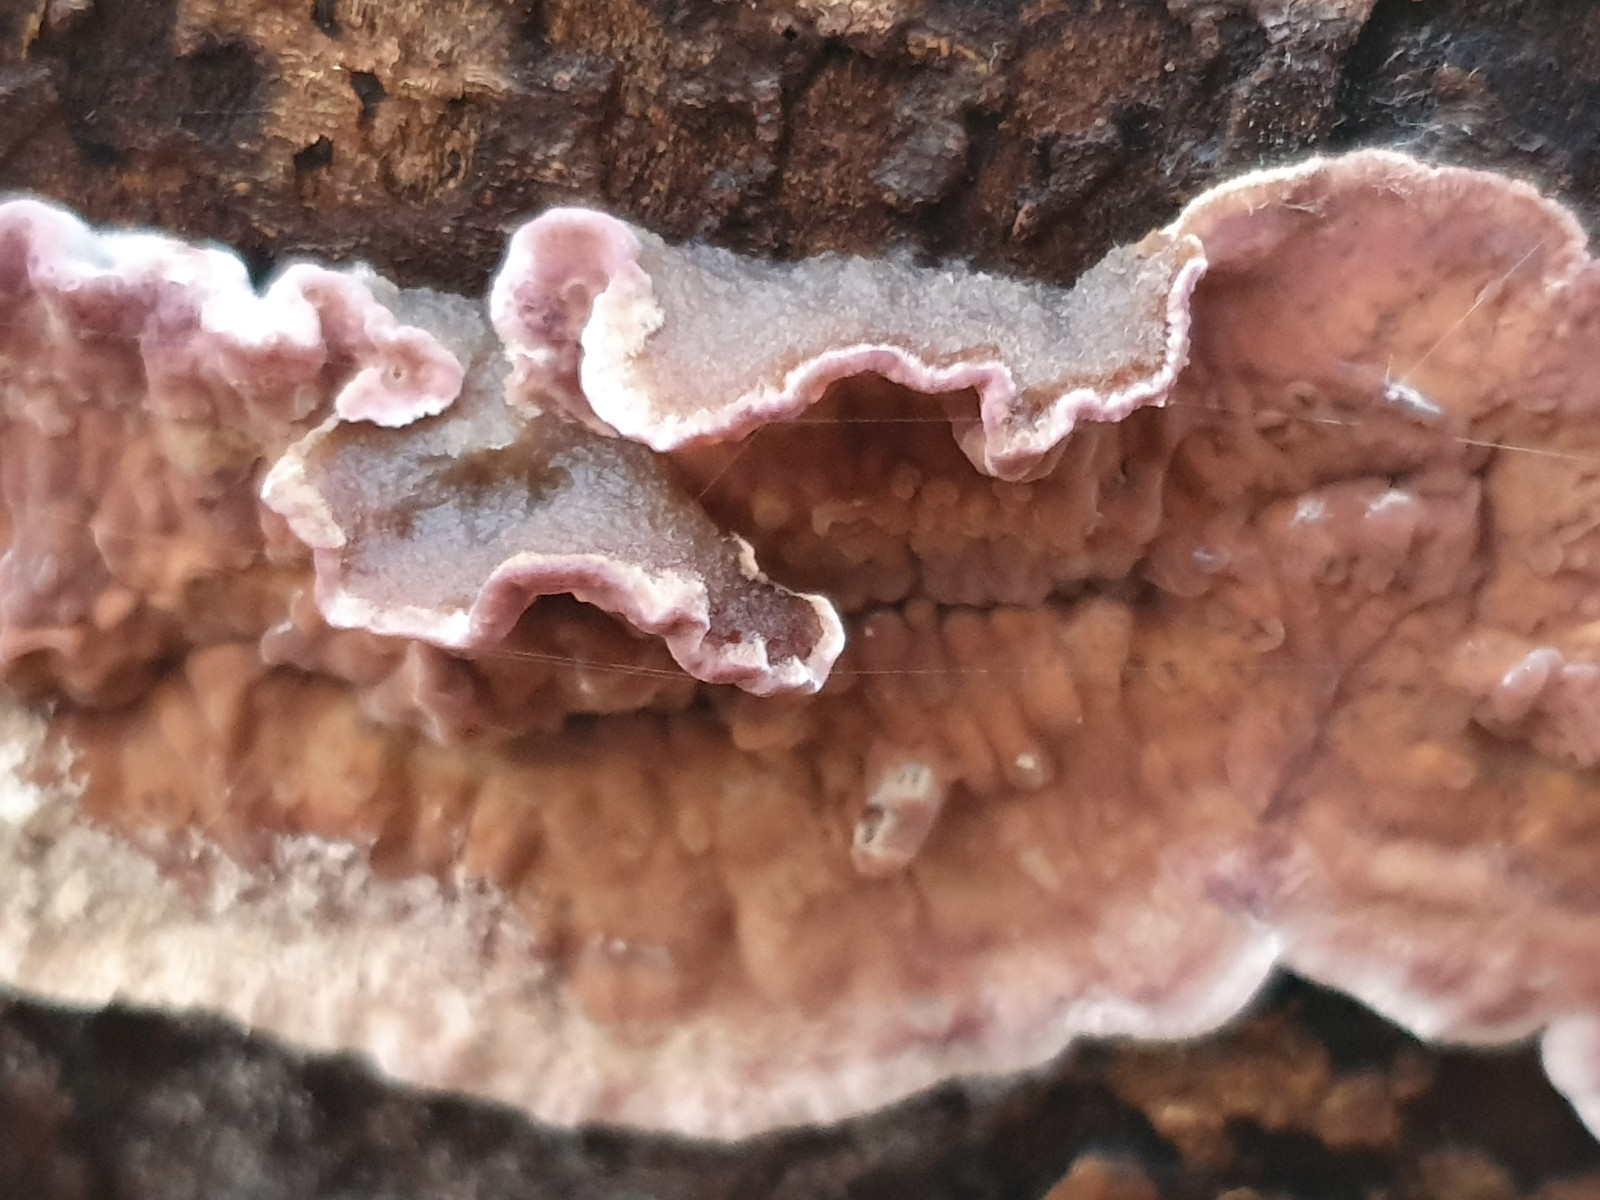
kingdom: Fungi
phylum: Basidiomycota
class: Agaricomycetes
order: Agaricales
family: Cyphellaceae
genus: Chondrostereum
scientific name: Chondrostereum purpureum
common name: purpurlædersvamp
